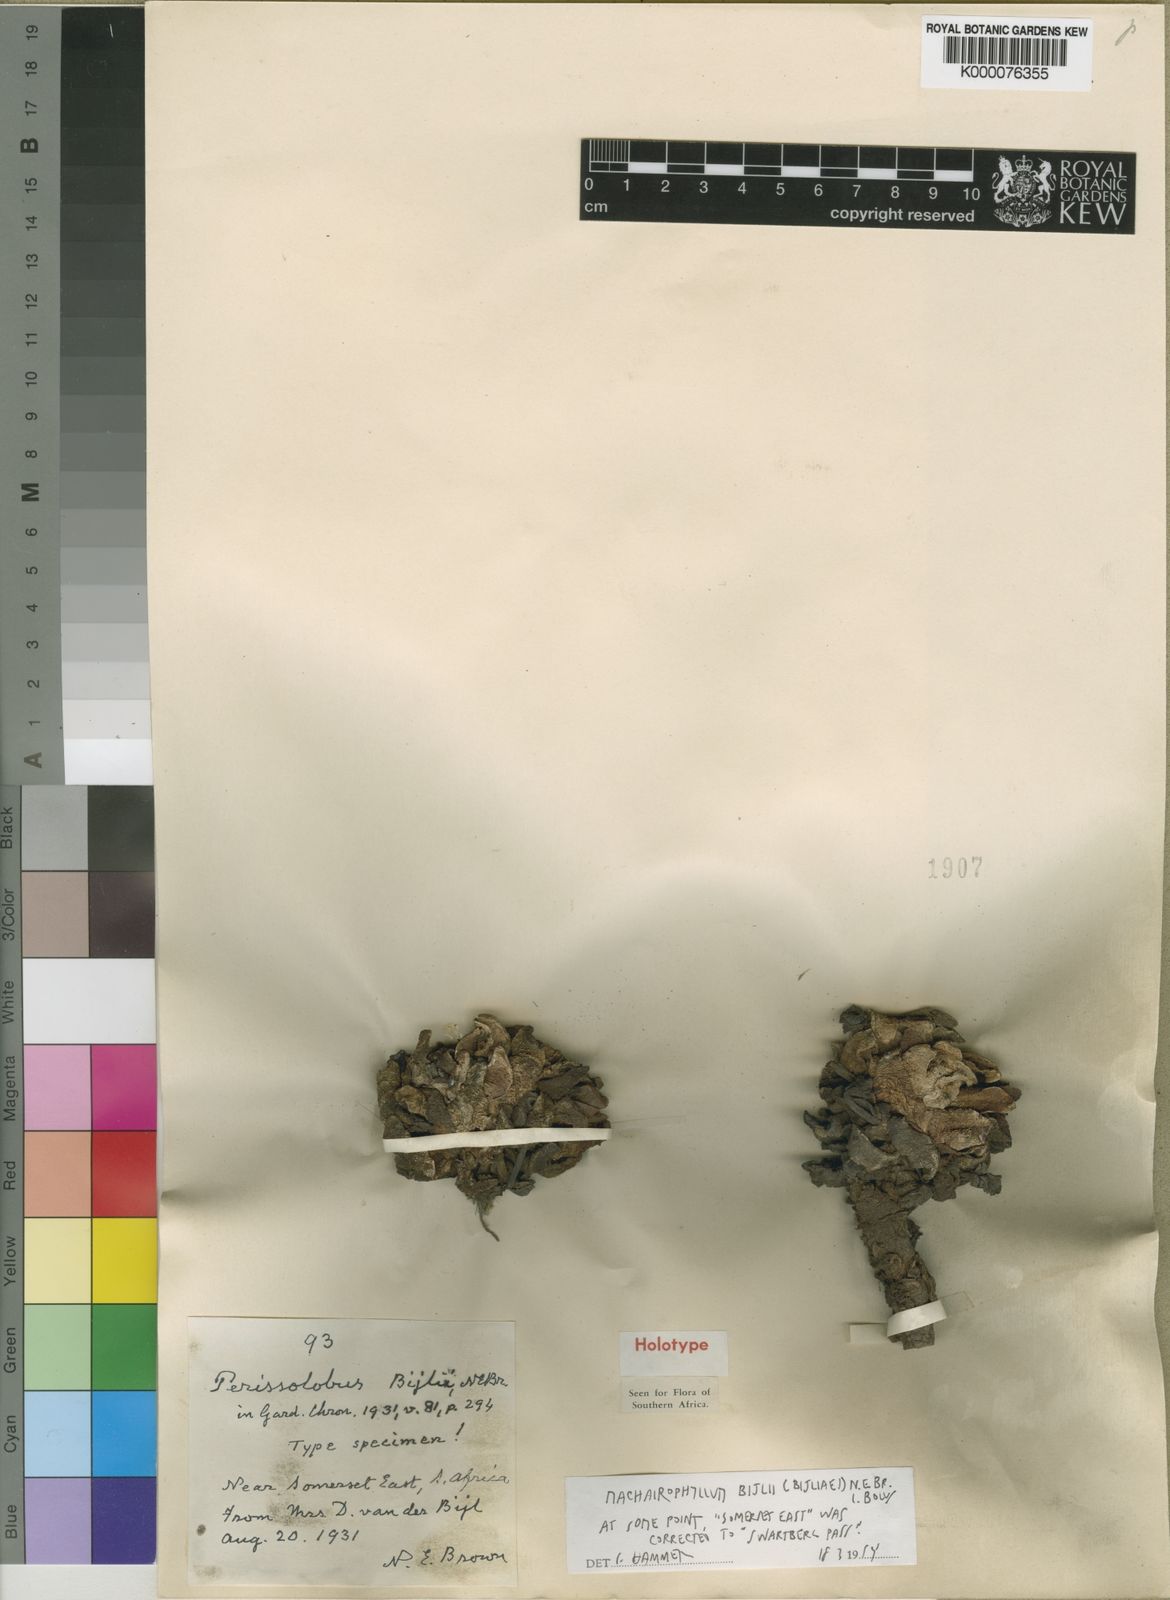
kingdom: Plantae
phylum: Tracheophyta
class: Magnoliopsida
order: Caryophyllales
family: Aizoaceae
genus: Machairophyllum
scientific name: Machairophyllum bijlii
